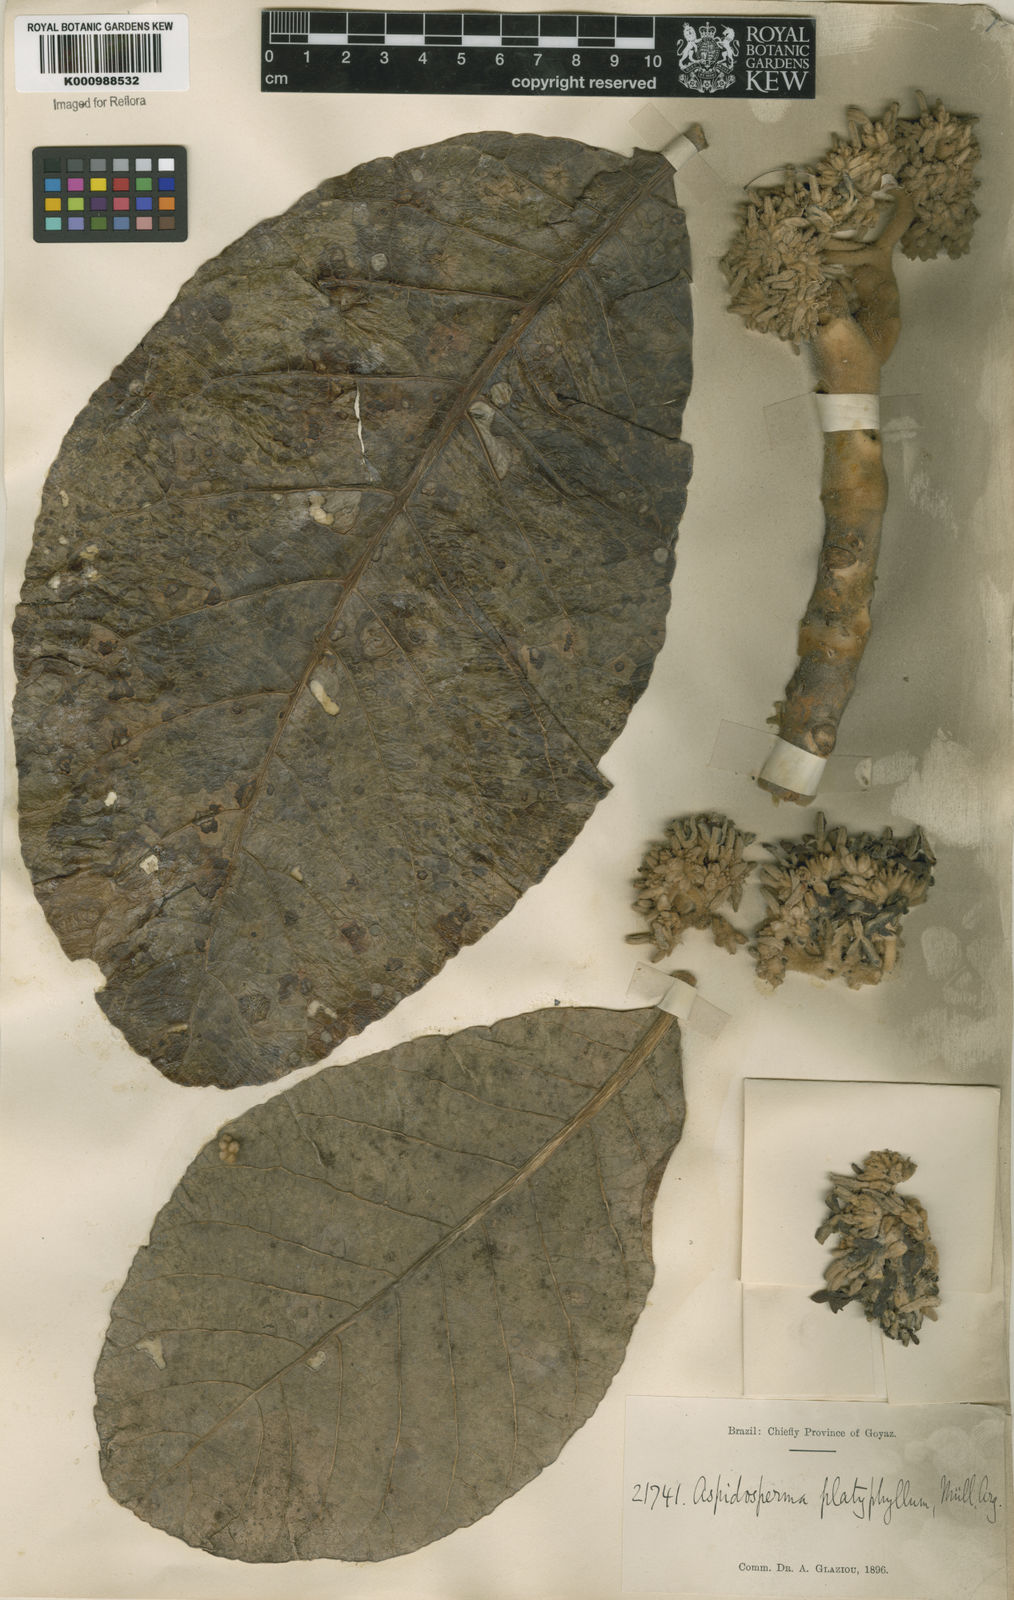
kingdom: Plantae
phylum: Tracheophyta
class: Magnoliopsida
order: Gentianales
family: Apocynaceae
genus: Aspidosperma
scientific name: Aspidosperma macrocarpon
